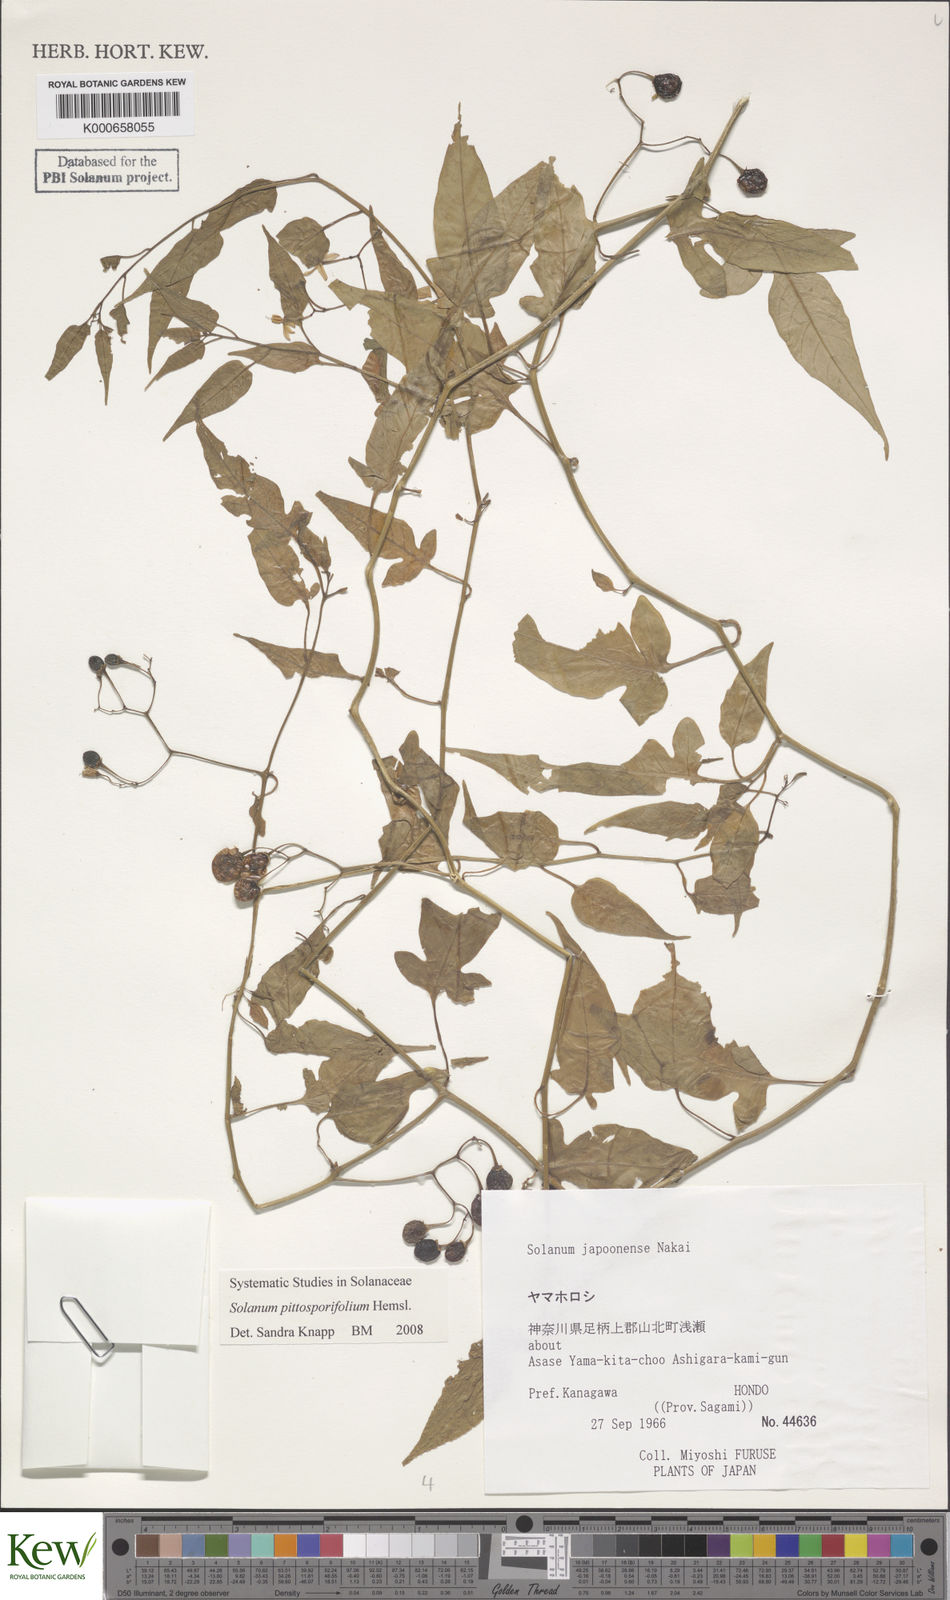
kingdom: Plantae
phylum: Tracheophyta
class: Magnoliopsida
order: Solanales
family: Solanaceae
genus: Solanum
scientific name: Solanum pittosporifolium
